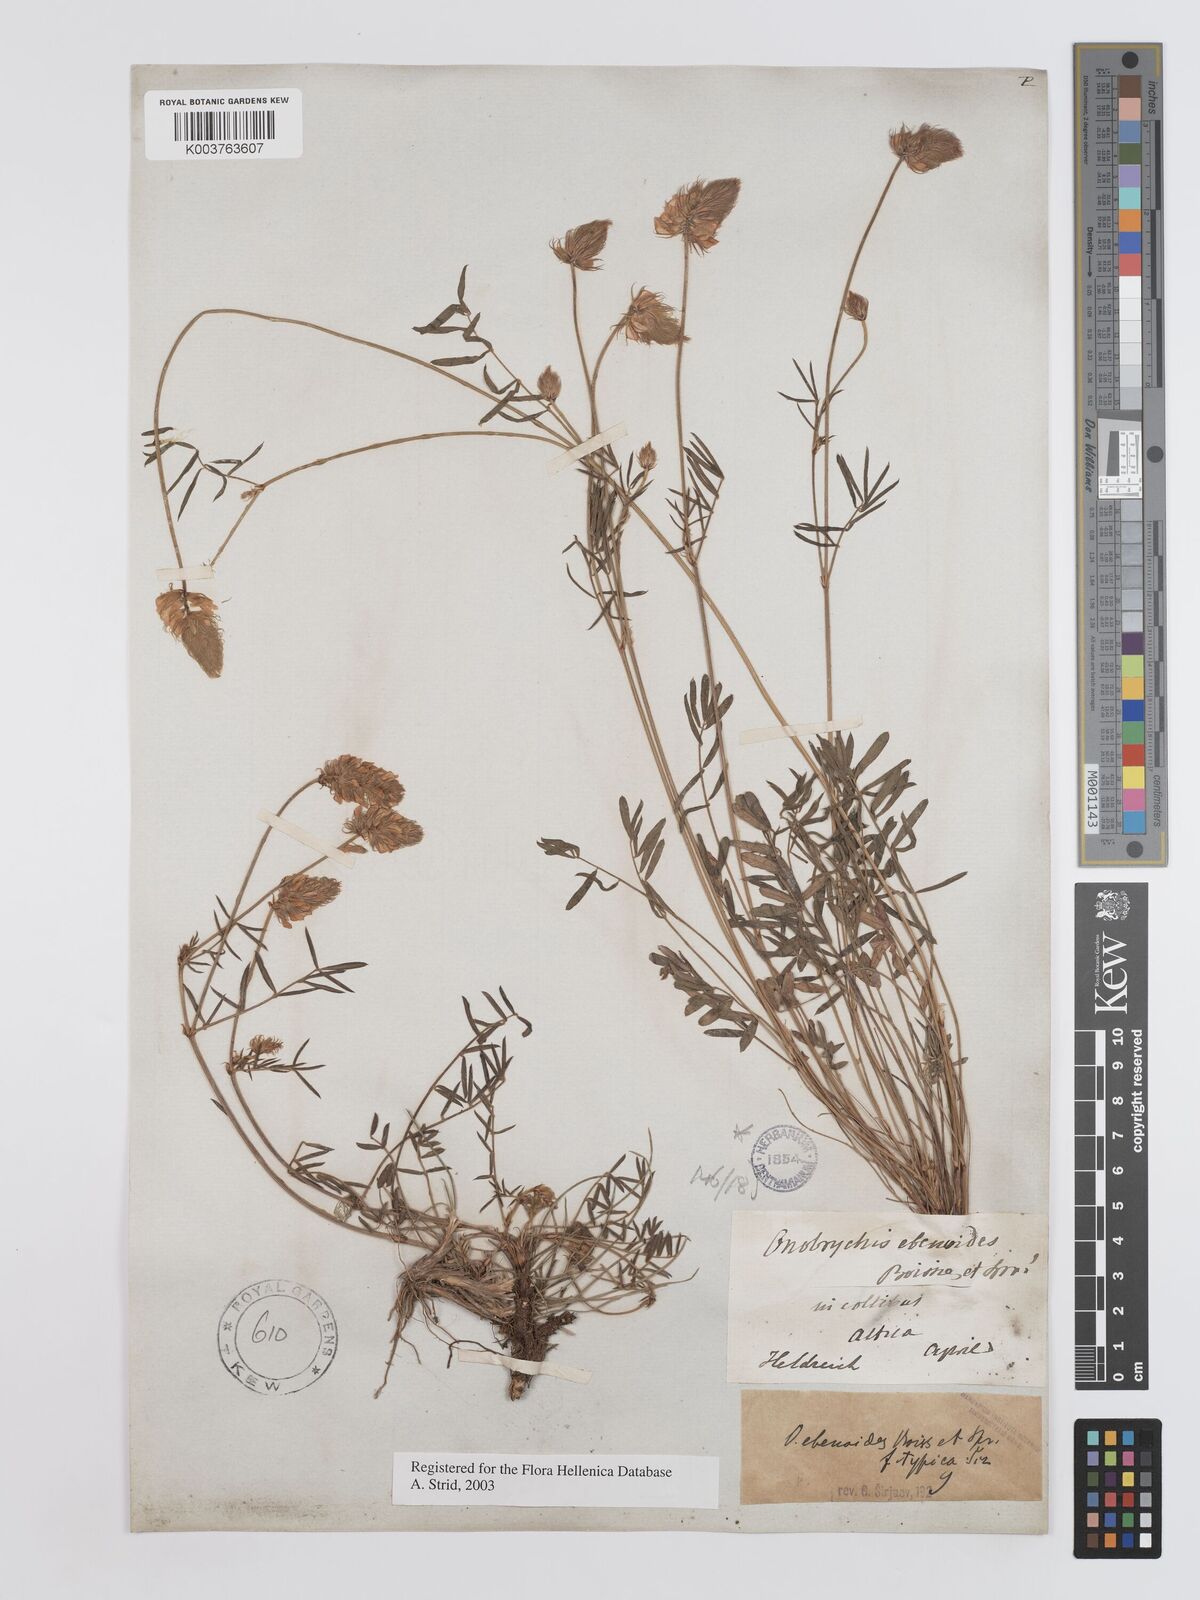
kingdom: Plantae
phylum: Tracheophyta
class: Magnoliopsida
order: Fabales
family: Fabaceae
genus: Onobrychis
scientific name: Onobrychis ebenoides
